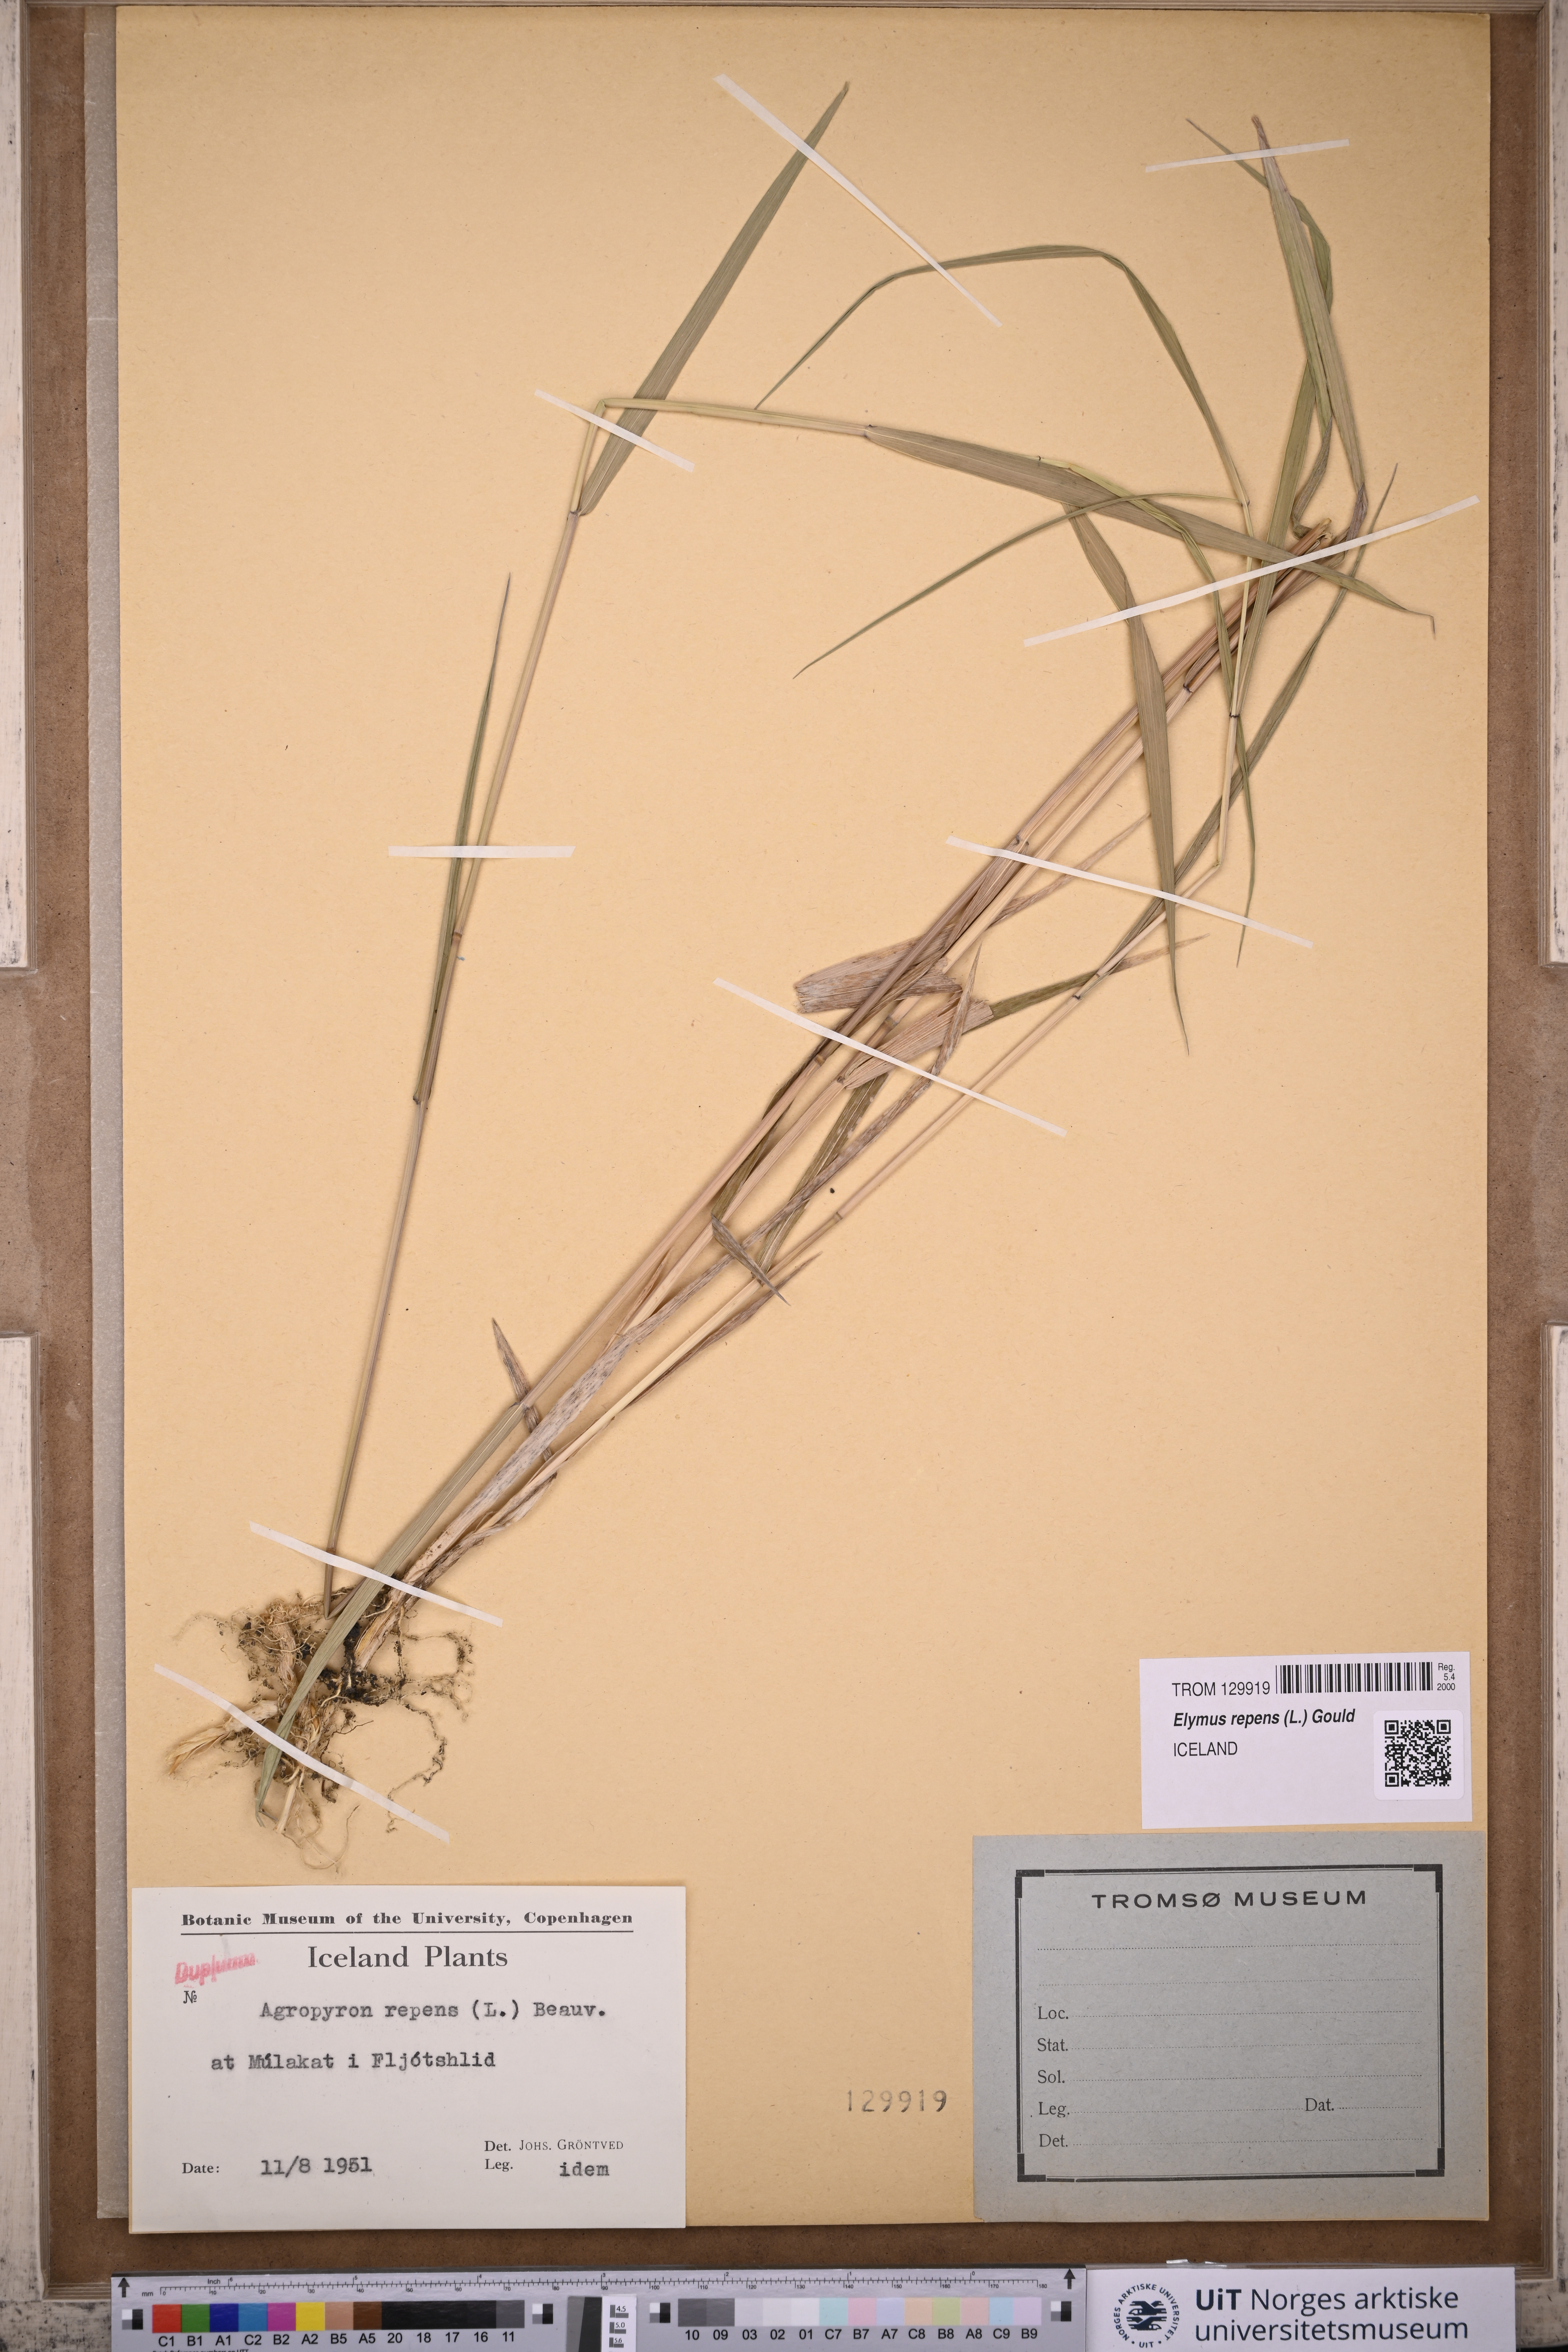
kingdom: Plantae
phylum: Tracheophyta
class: Liliopsida
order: Poales
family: Poaceae
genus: Elymus
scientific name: Elymus repens
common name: Quackgrass
